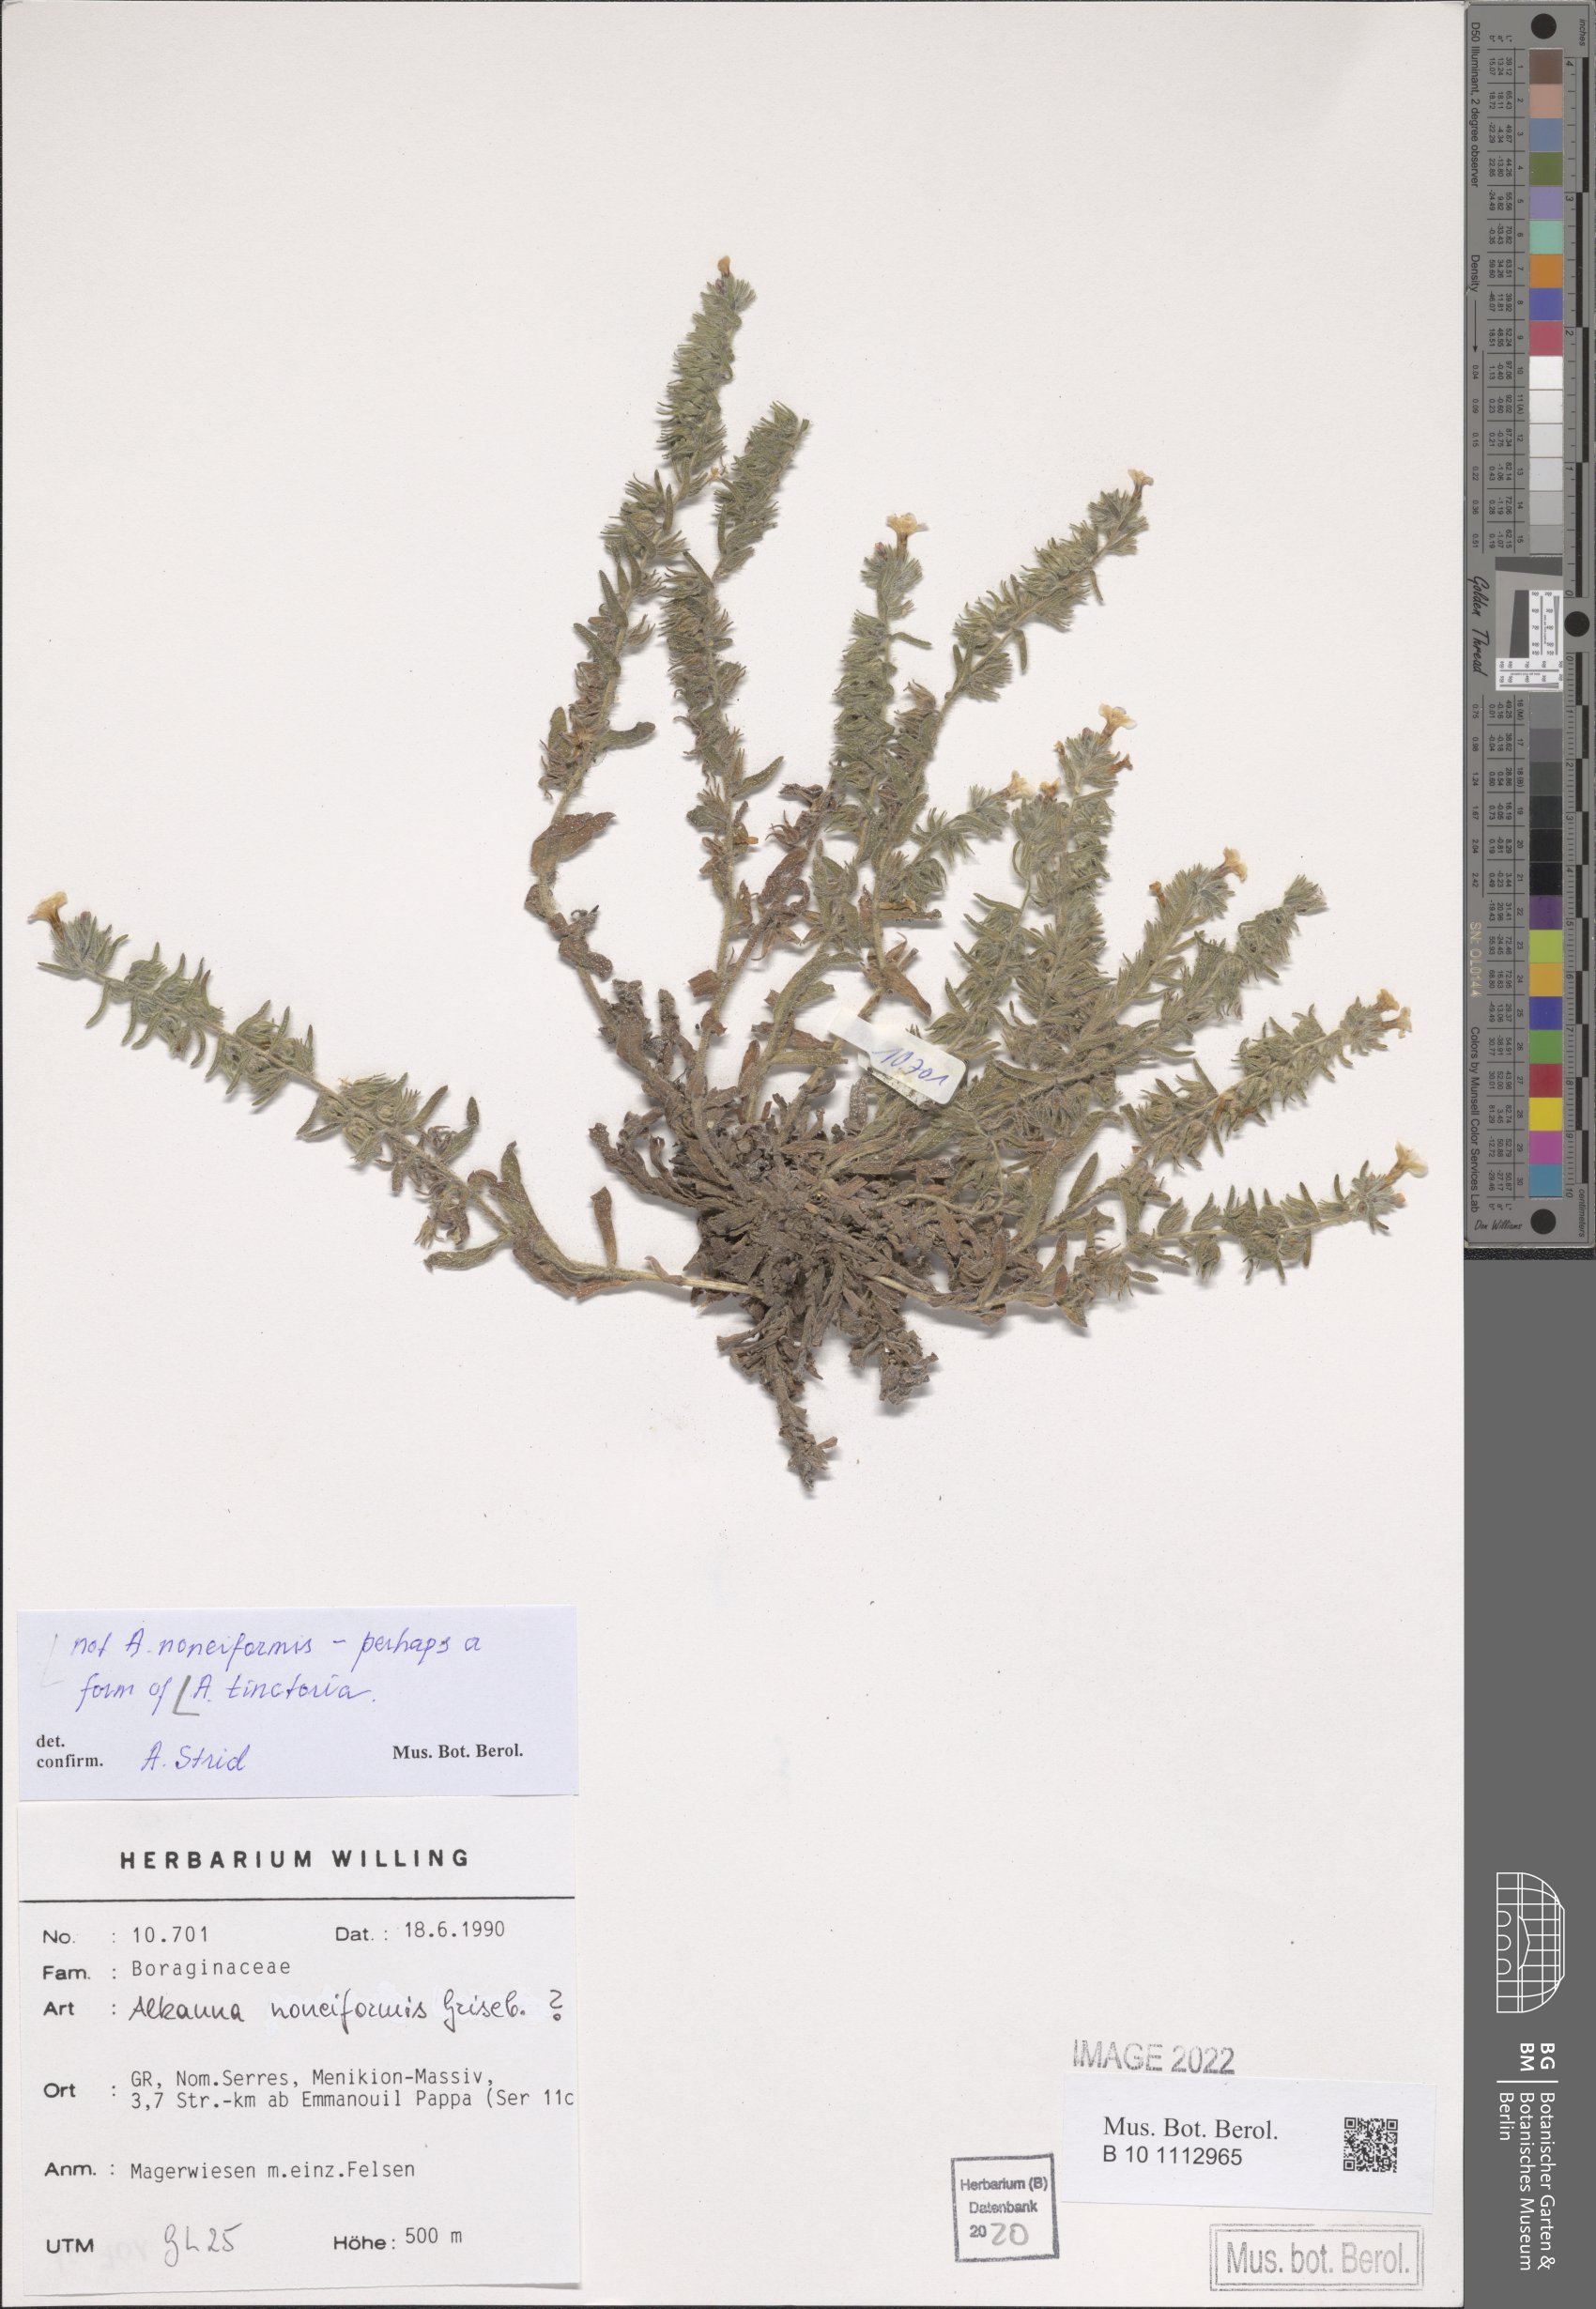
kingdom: Plantae
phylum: Tracheophyta
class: Magnoliopsida
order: Boraginales
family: Boraginaceae
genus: Alkanna
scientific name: Alkanna tinctoria
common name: Dyer's-alkanet
